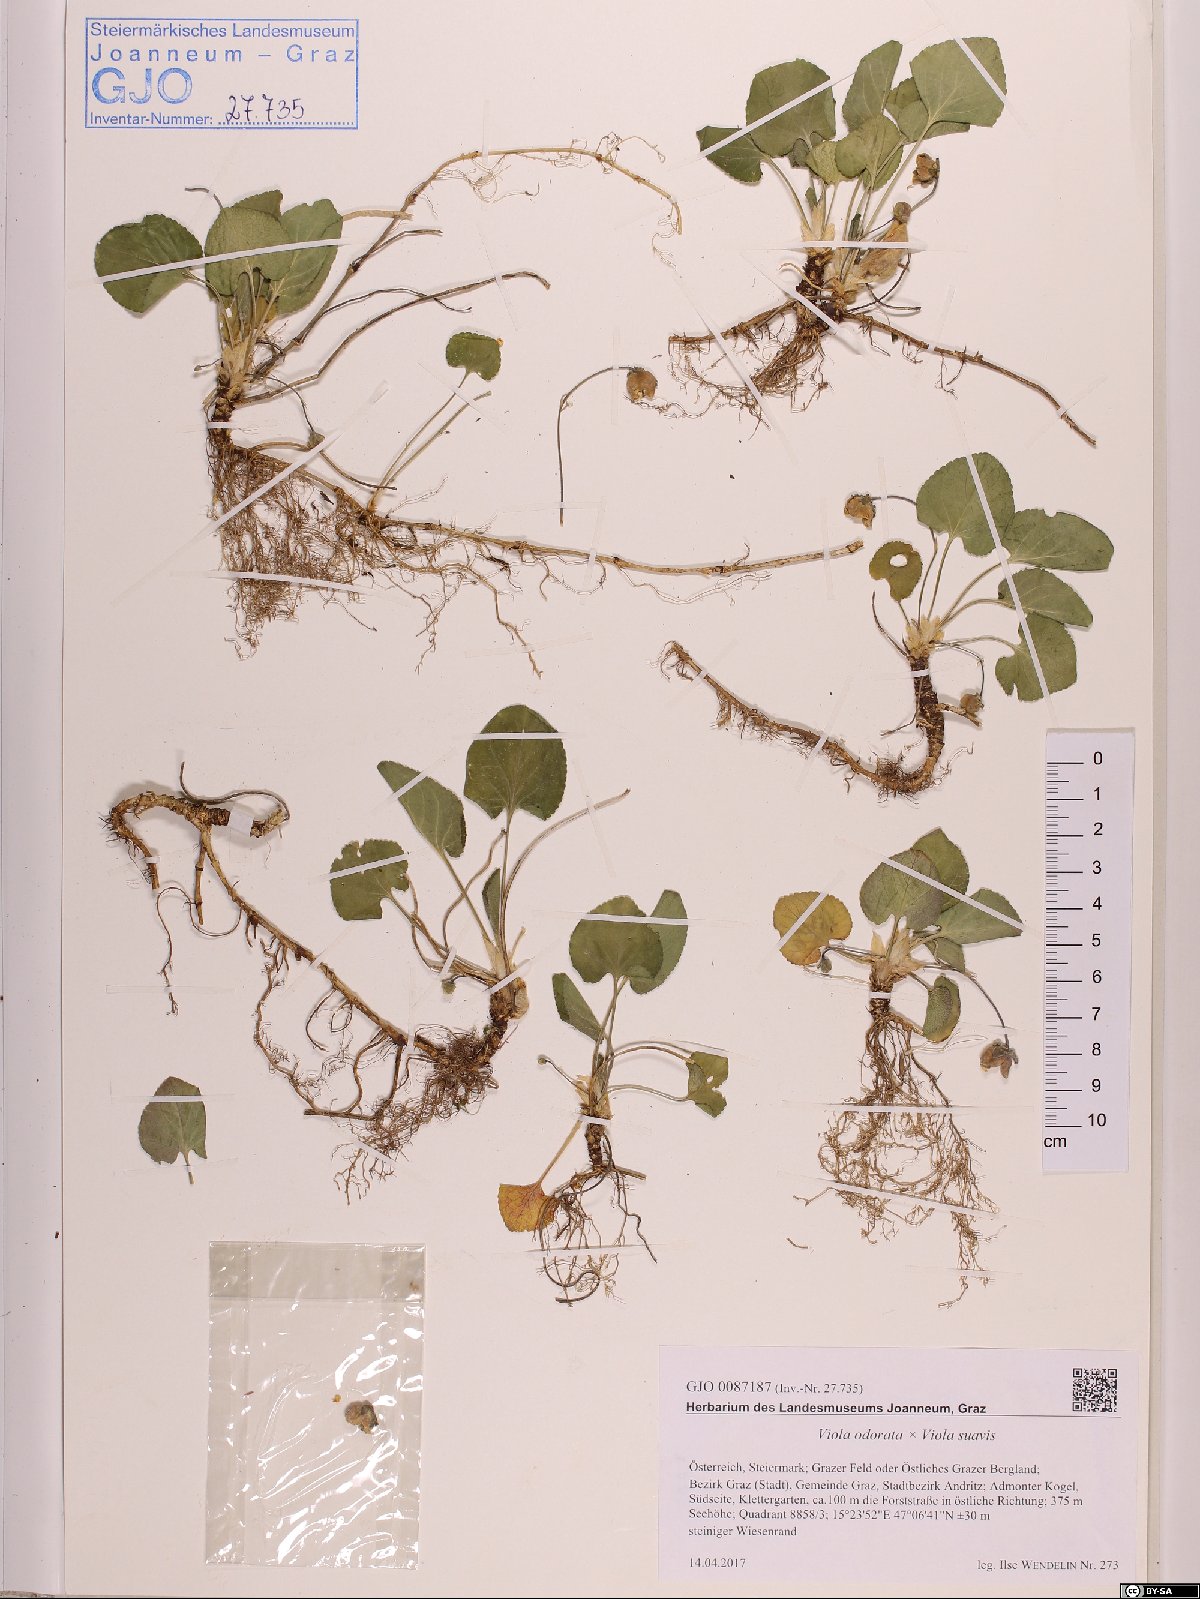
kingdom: Plantae
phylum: Tracheophyta
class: Magnoliopsida
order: Malpighiales
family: Violaceae
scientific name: Violaceae
